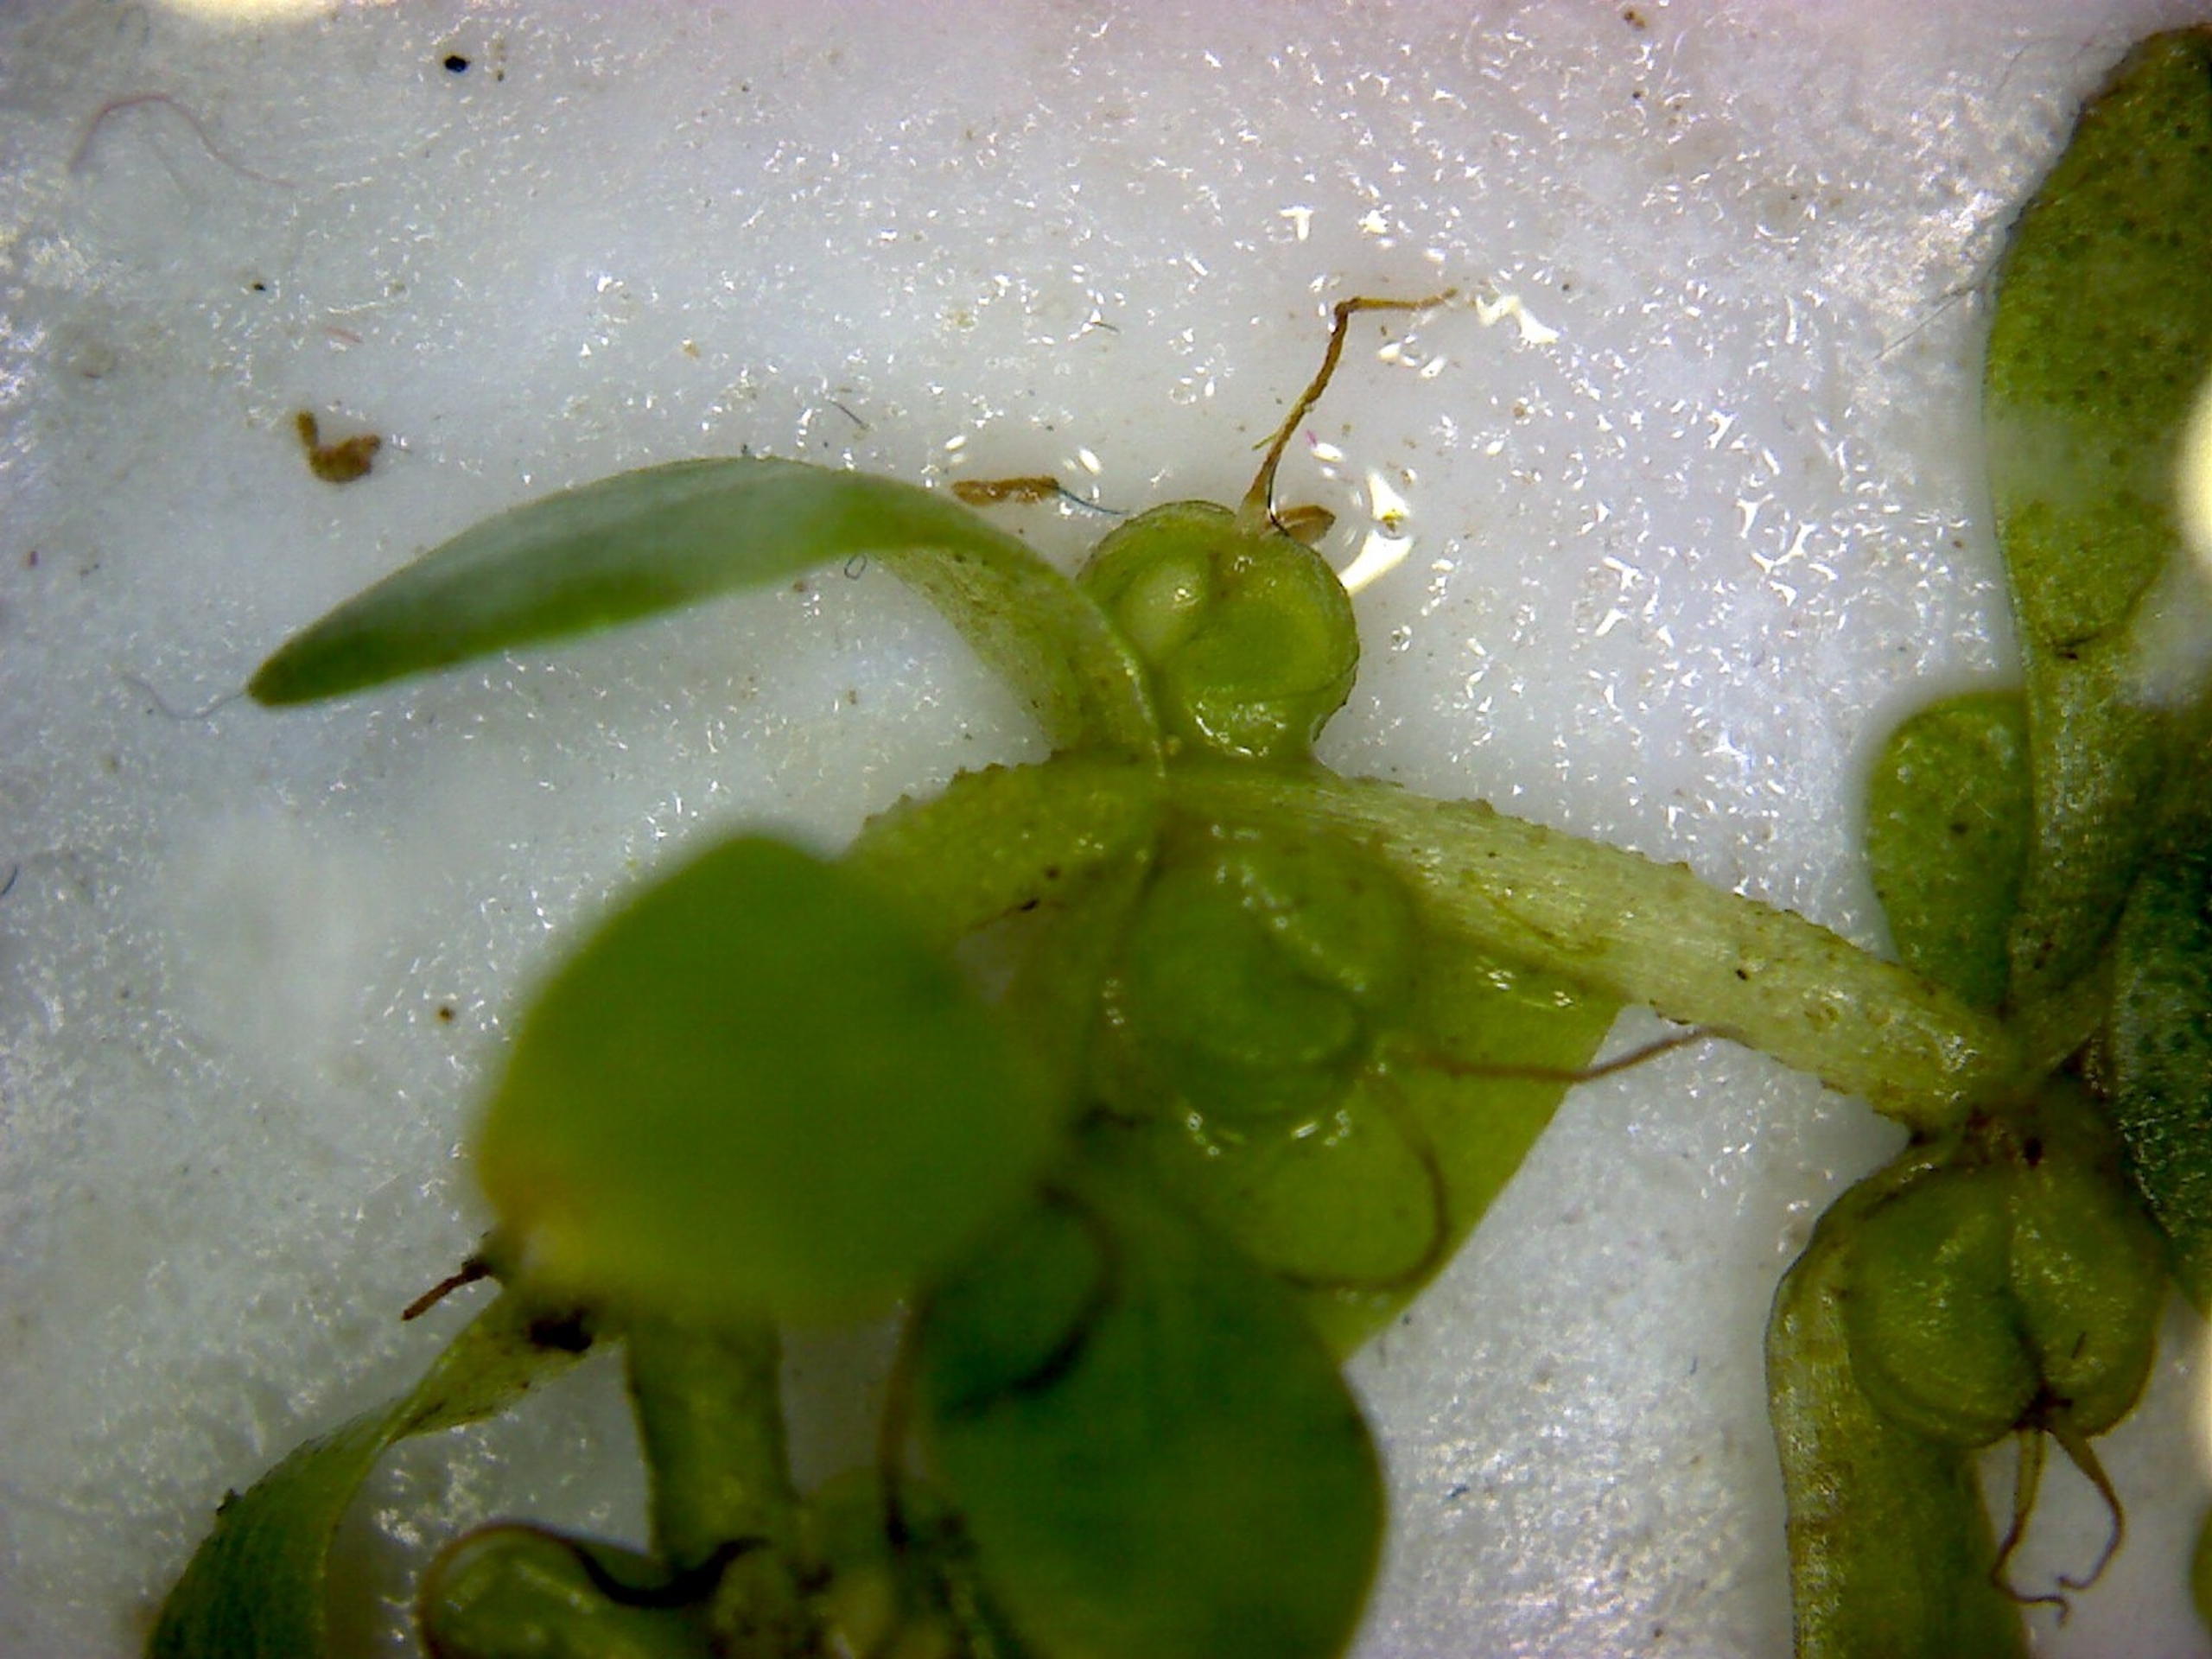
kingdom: Plantae
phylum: Tracheophyta
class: Magnoliopsida
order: Lamiales
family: Plantaginaceae
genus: Callitriche
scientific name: Callitriche
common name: Vandstjerneslægten
